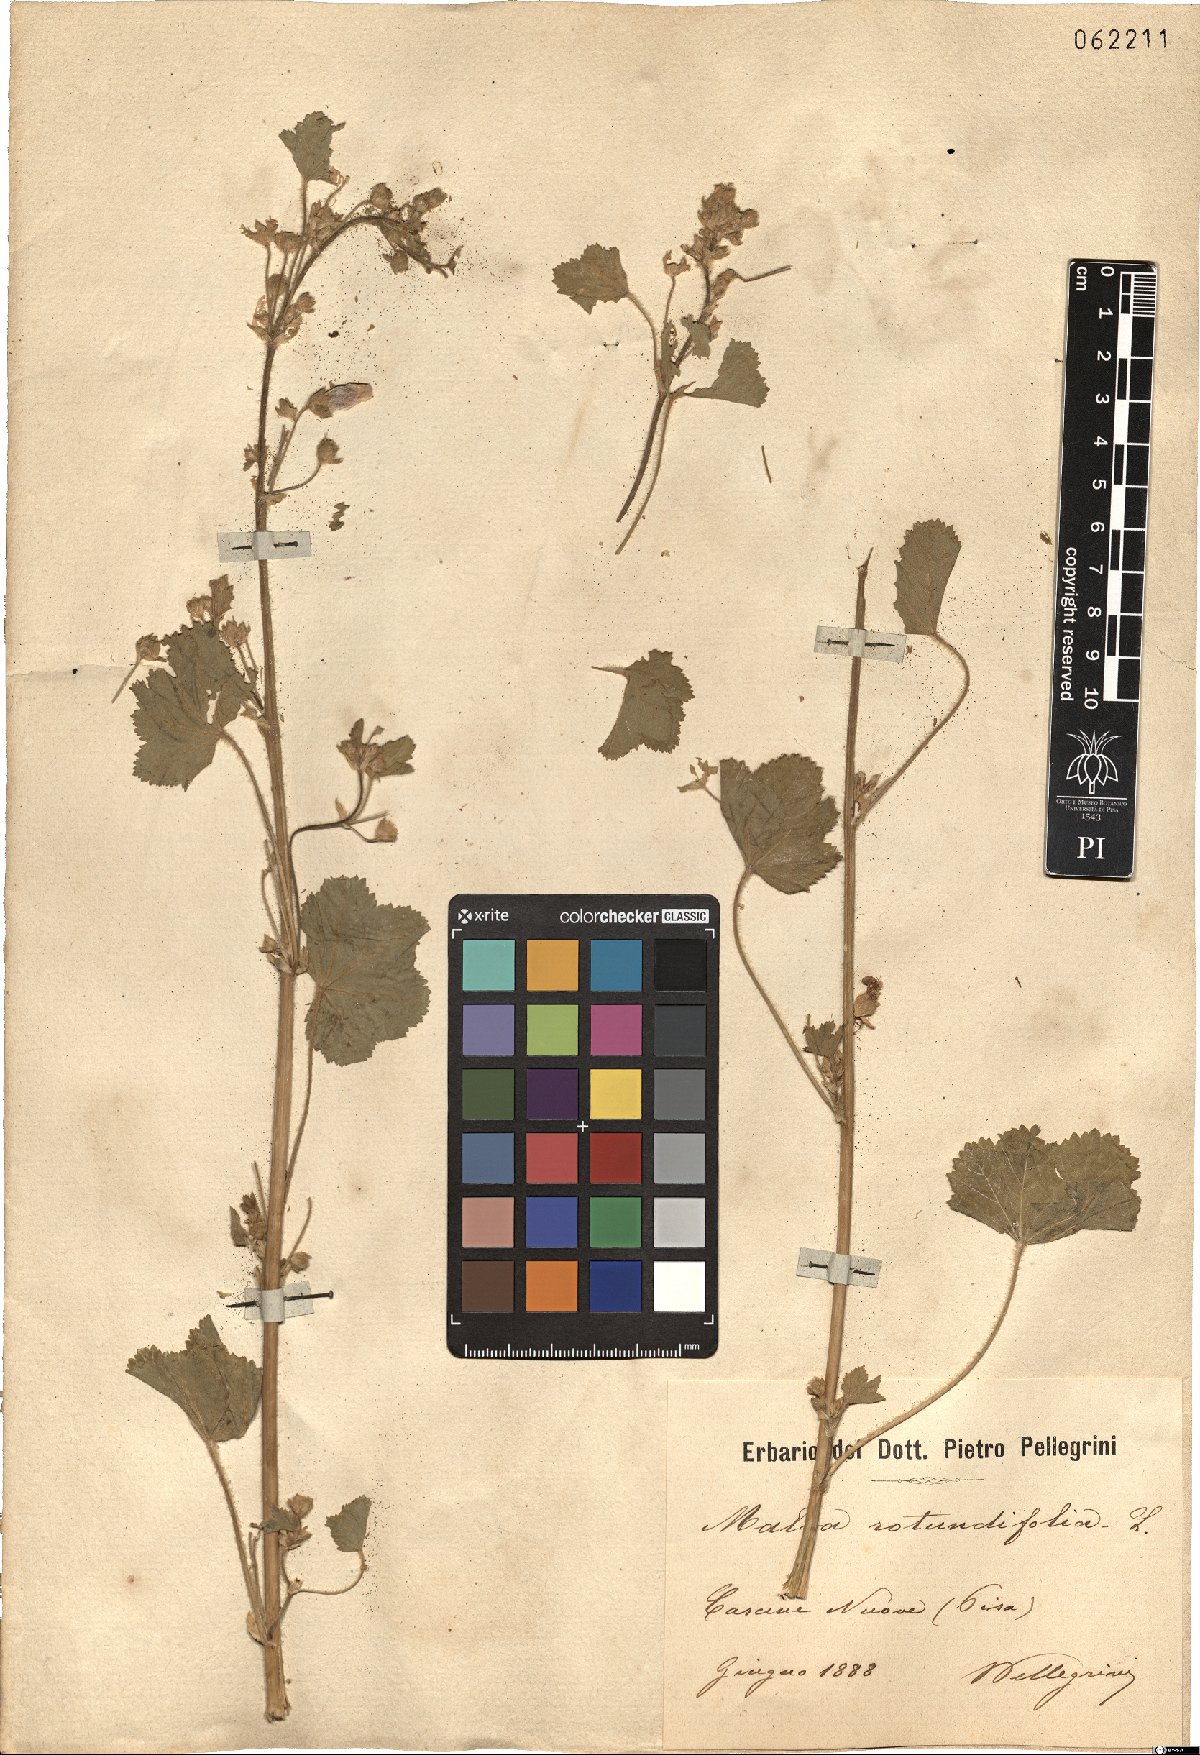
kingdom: Plantae
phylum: Tracheophyta
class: Magnoliopsida
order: Malvales
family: Malvaceae
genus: Malva
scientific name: Malva pusilla
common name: Small mallow
